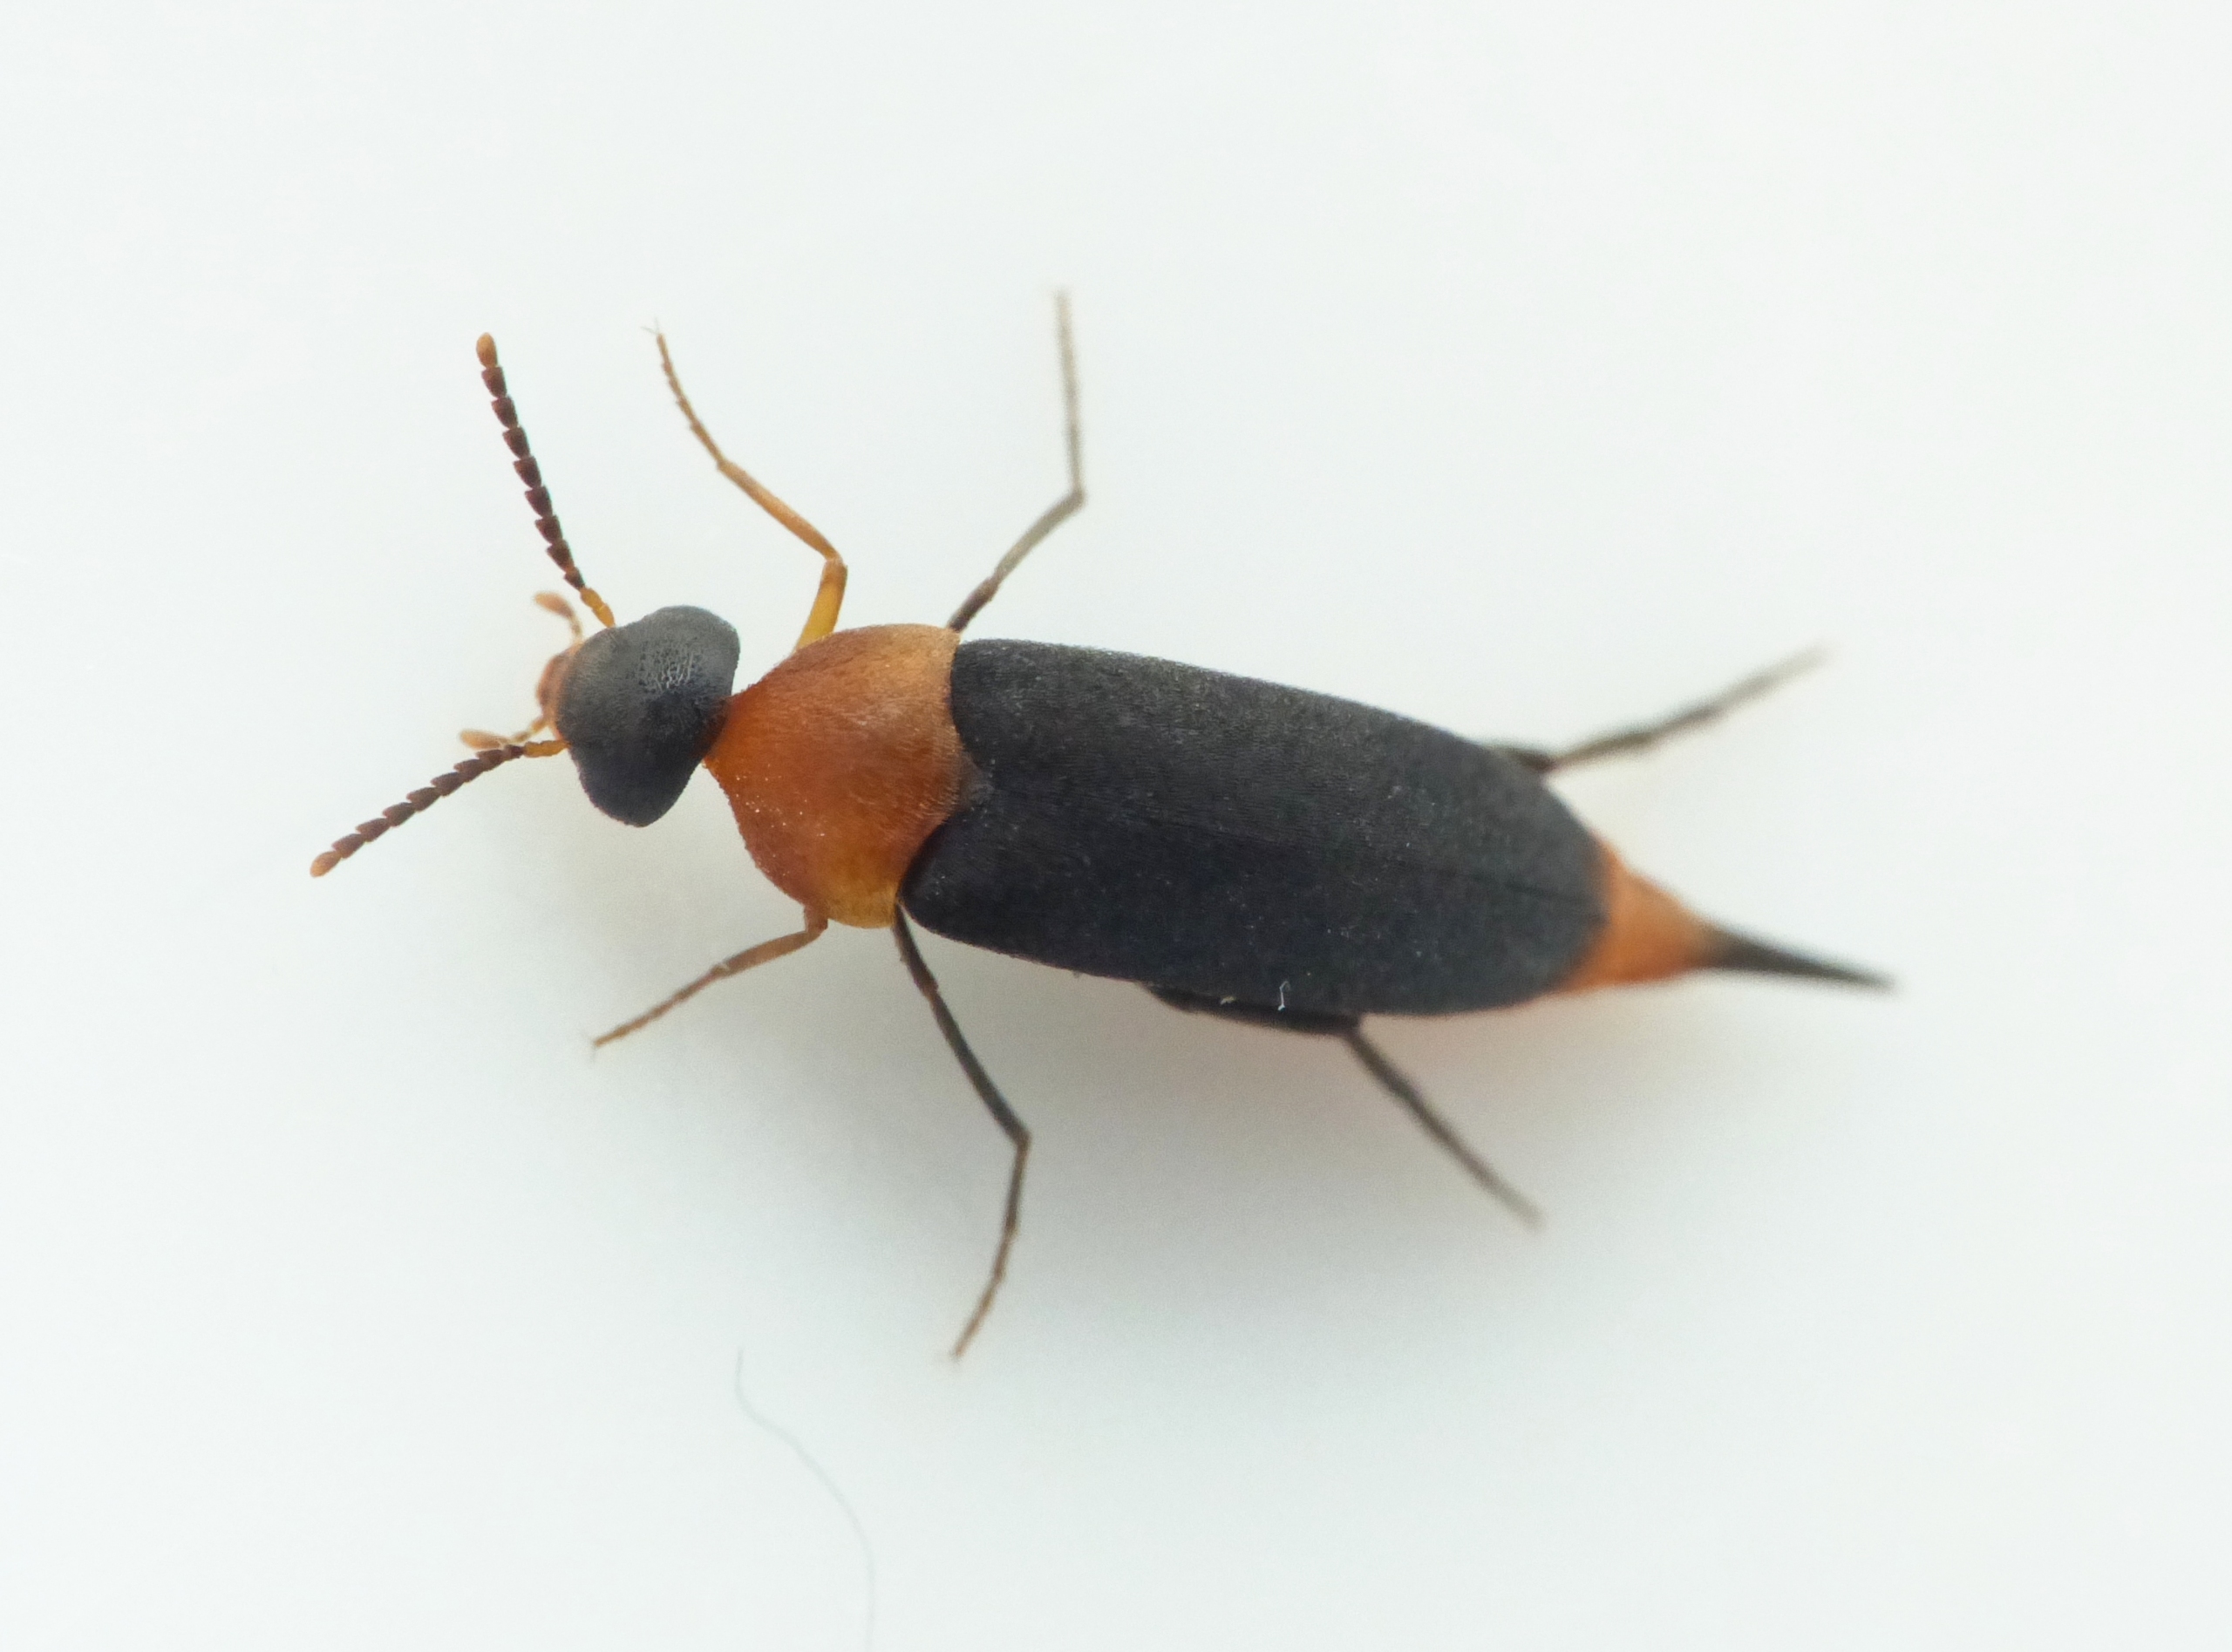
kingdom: Animalia
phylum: Arthropoda
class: Insecta
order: Coleoptera
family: Mordellidae
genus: Mordellochroa
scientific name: Mordellochroa abdominalis
